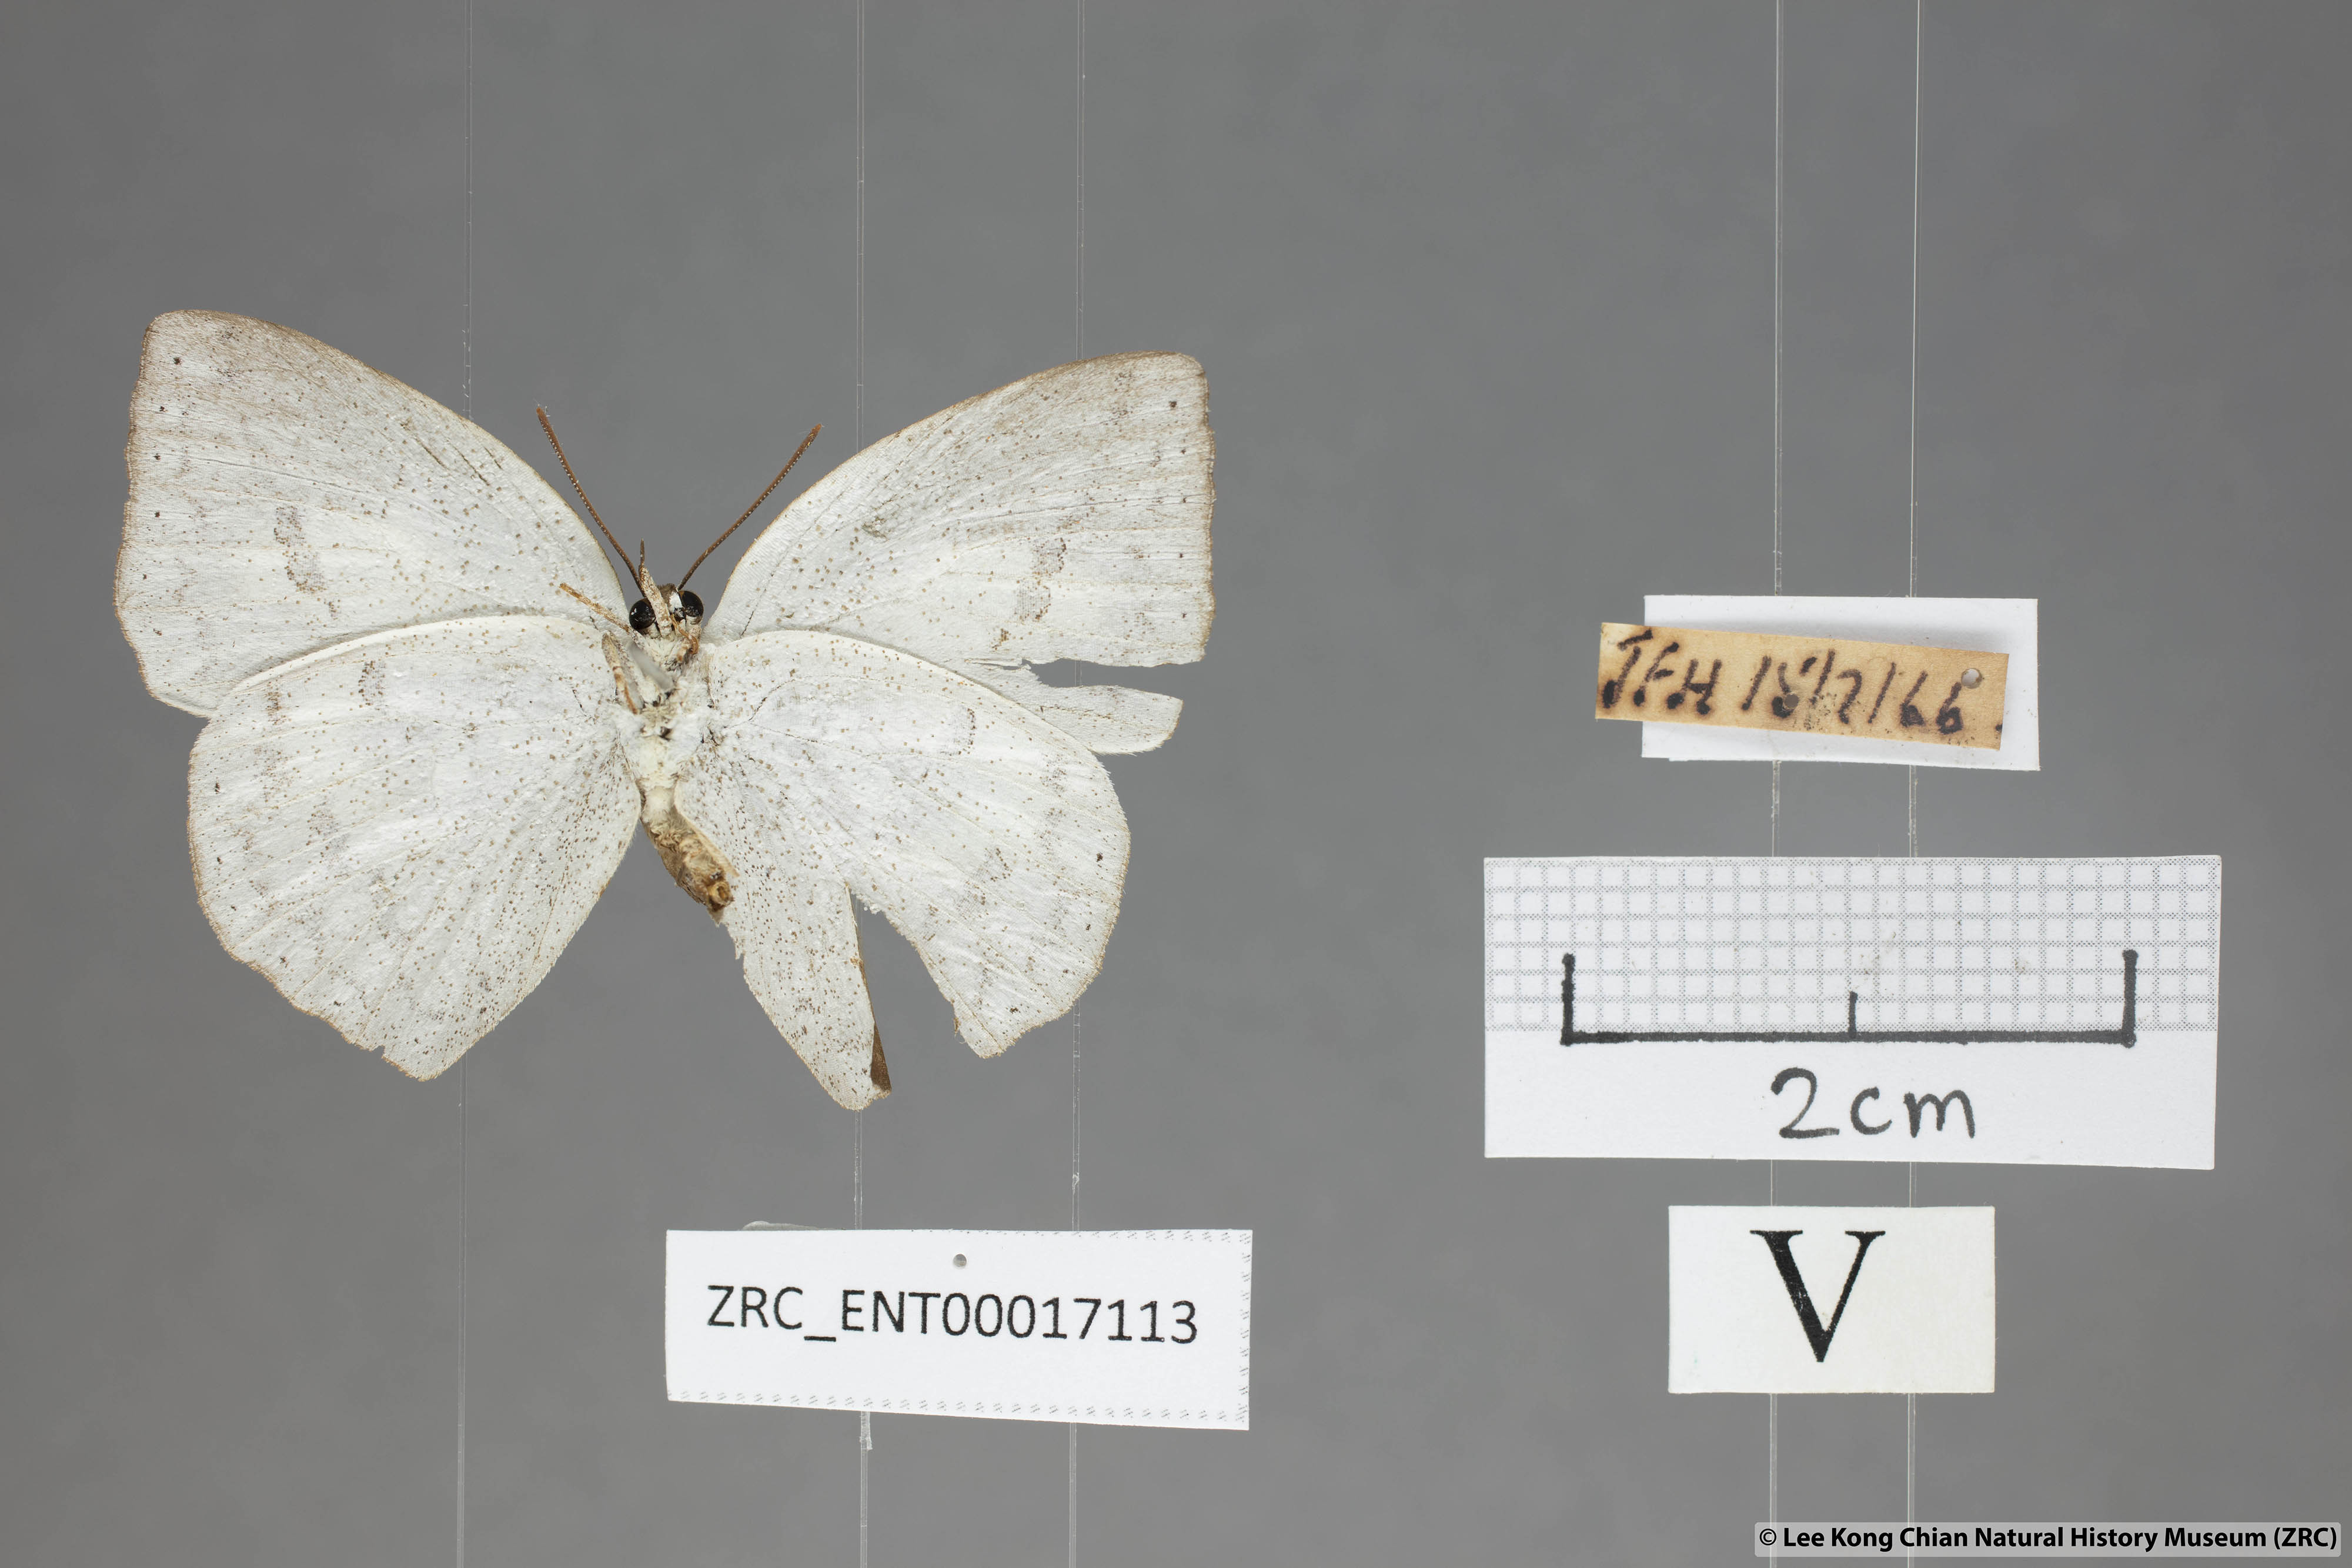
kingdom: Animalia
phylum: Arthropoda
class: Insecta
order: Lepidoptera
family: Lycaenidae
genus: Curetis
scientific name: Curetis bulis
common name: Bright sunbeam
